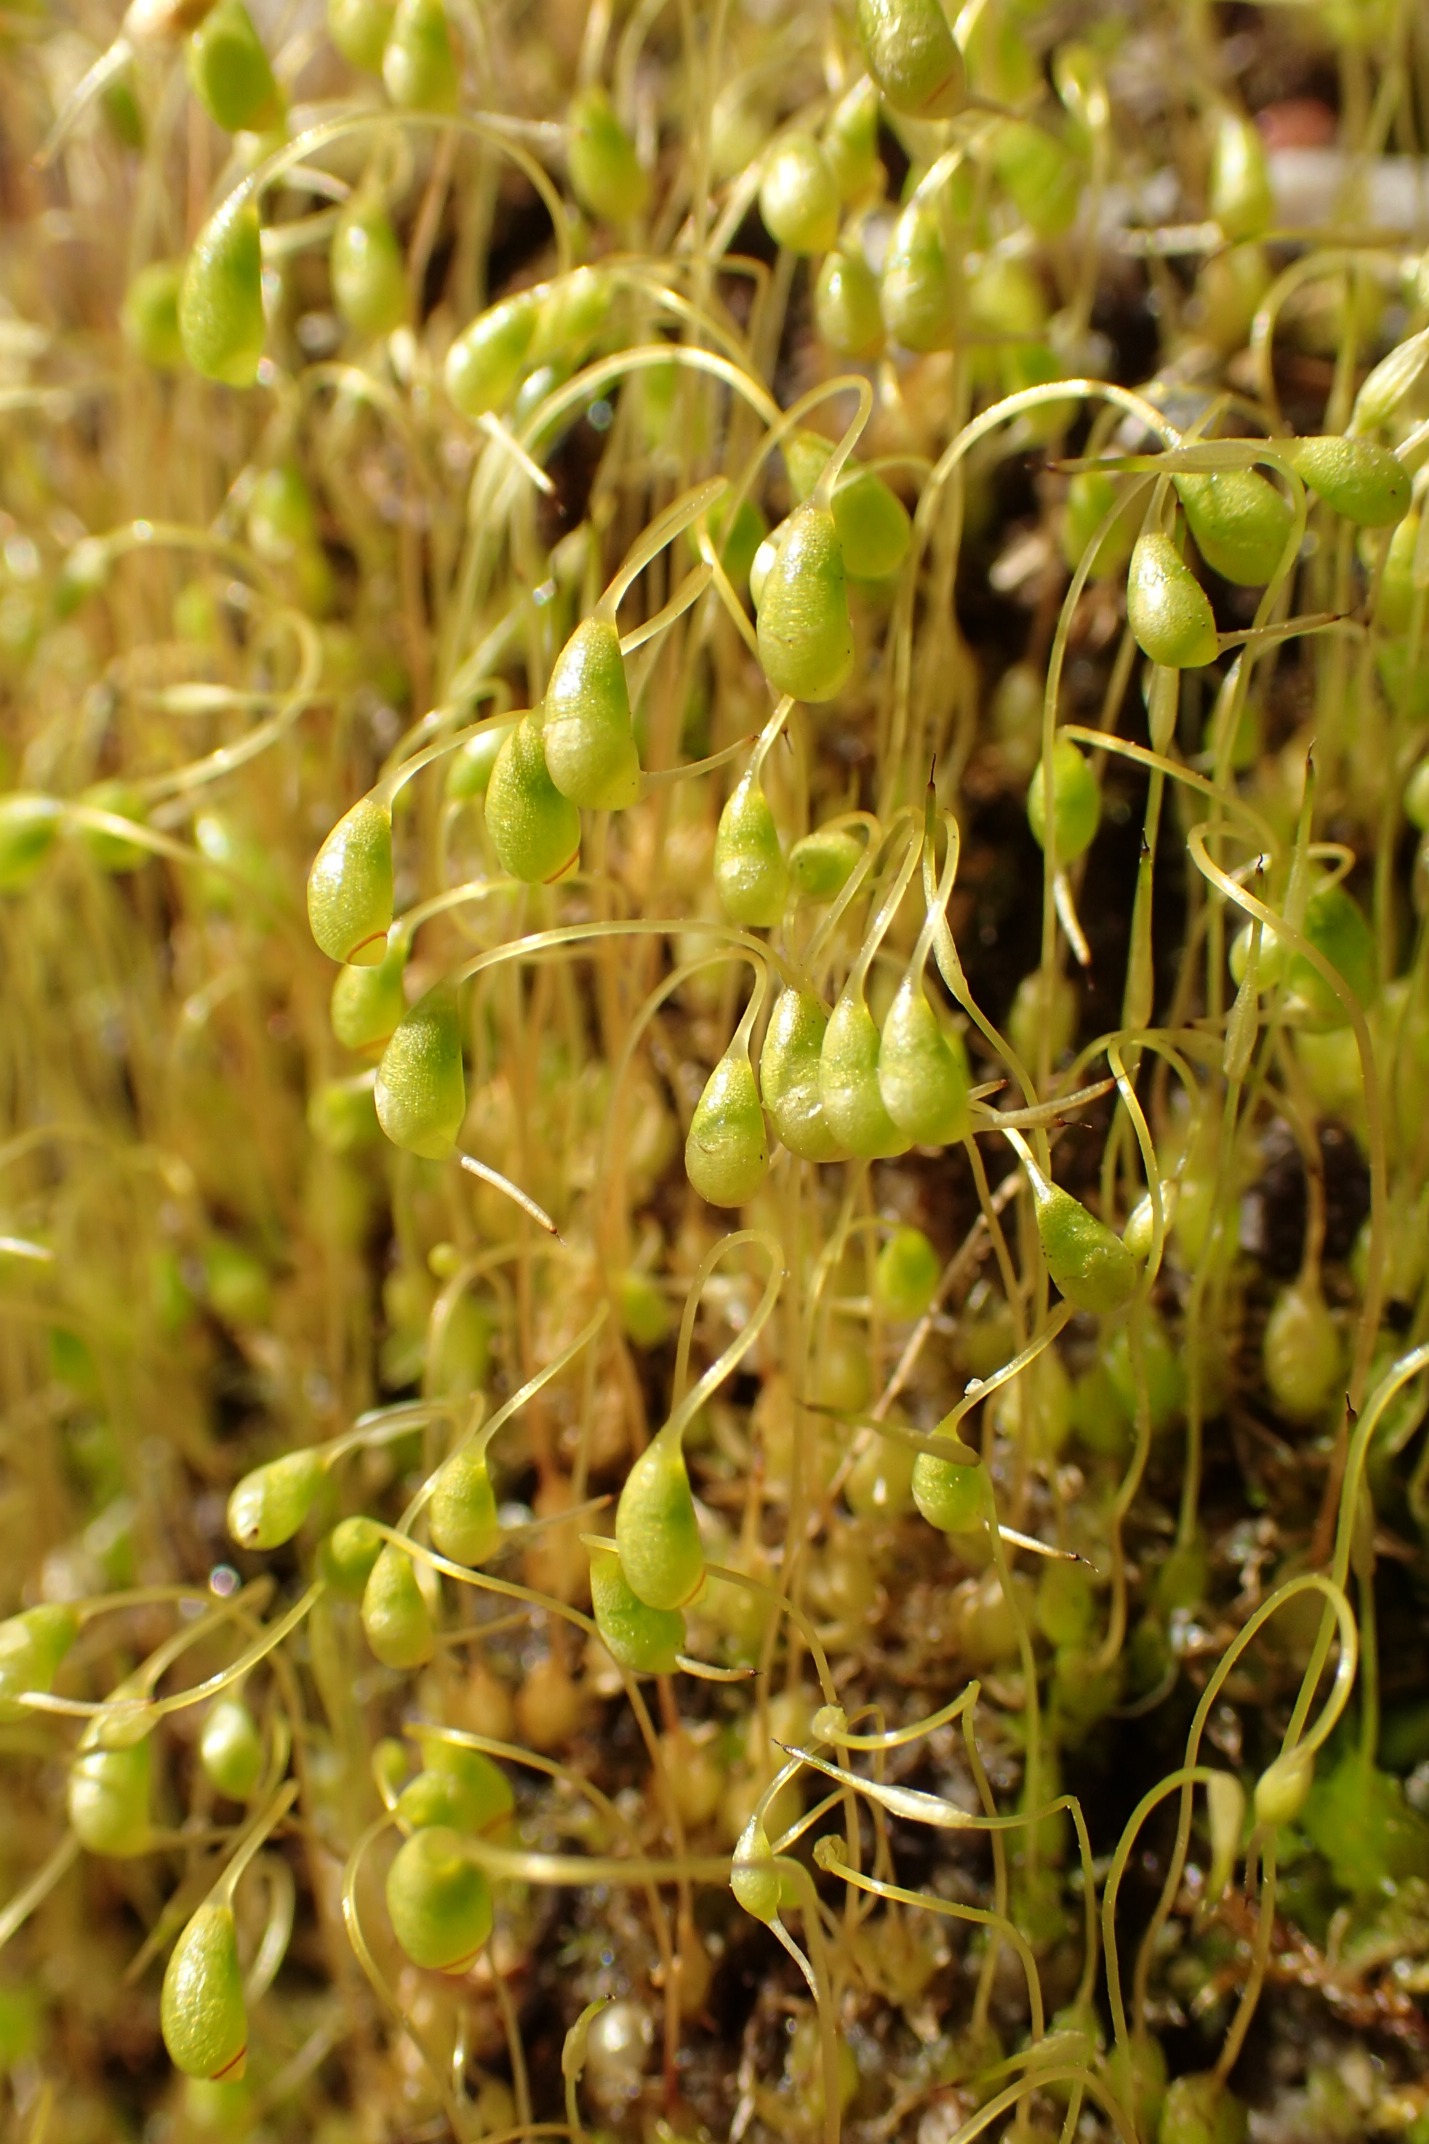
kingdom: Plantae
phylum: Bryophyta
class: Bryopsida
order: Funariales
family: Funariaceae
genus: Funaria
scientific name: Funaria hygrometrica
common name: Almindelig snobørste
